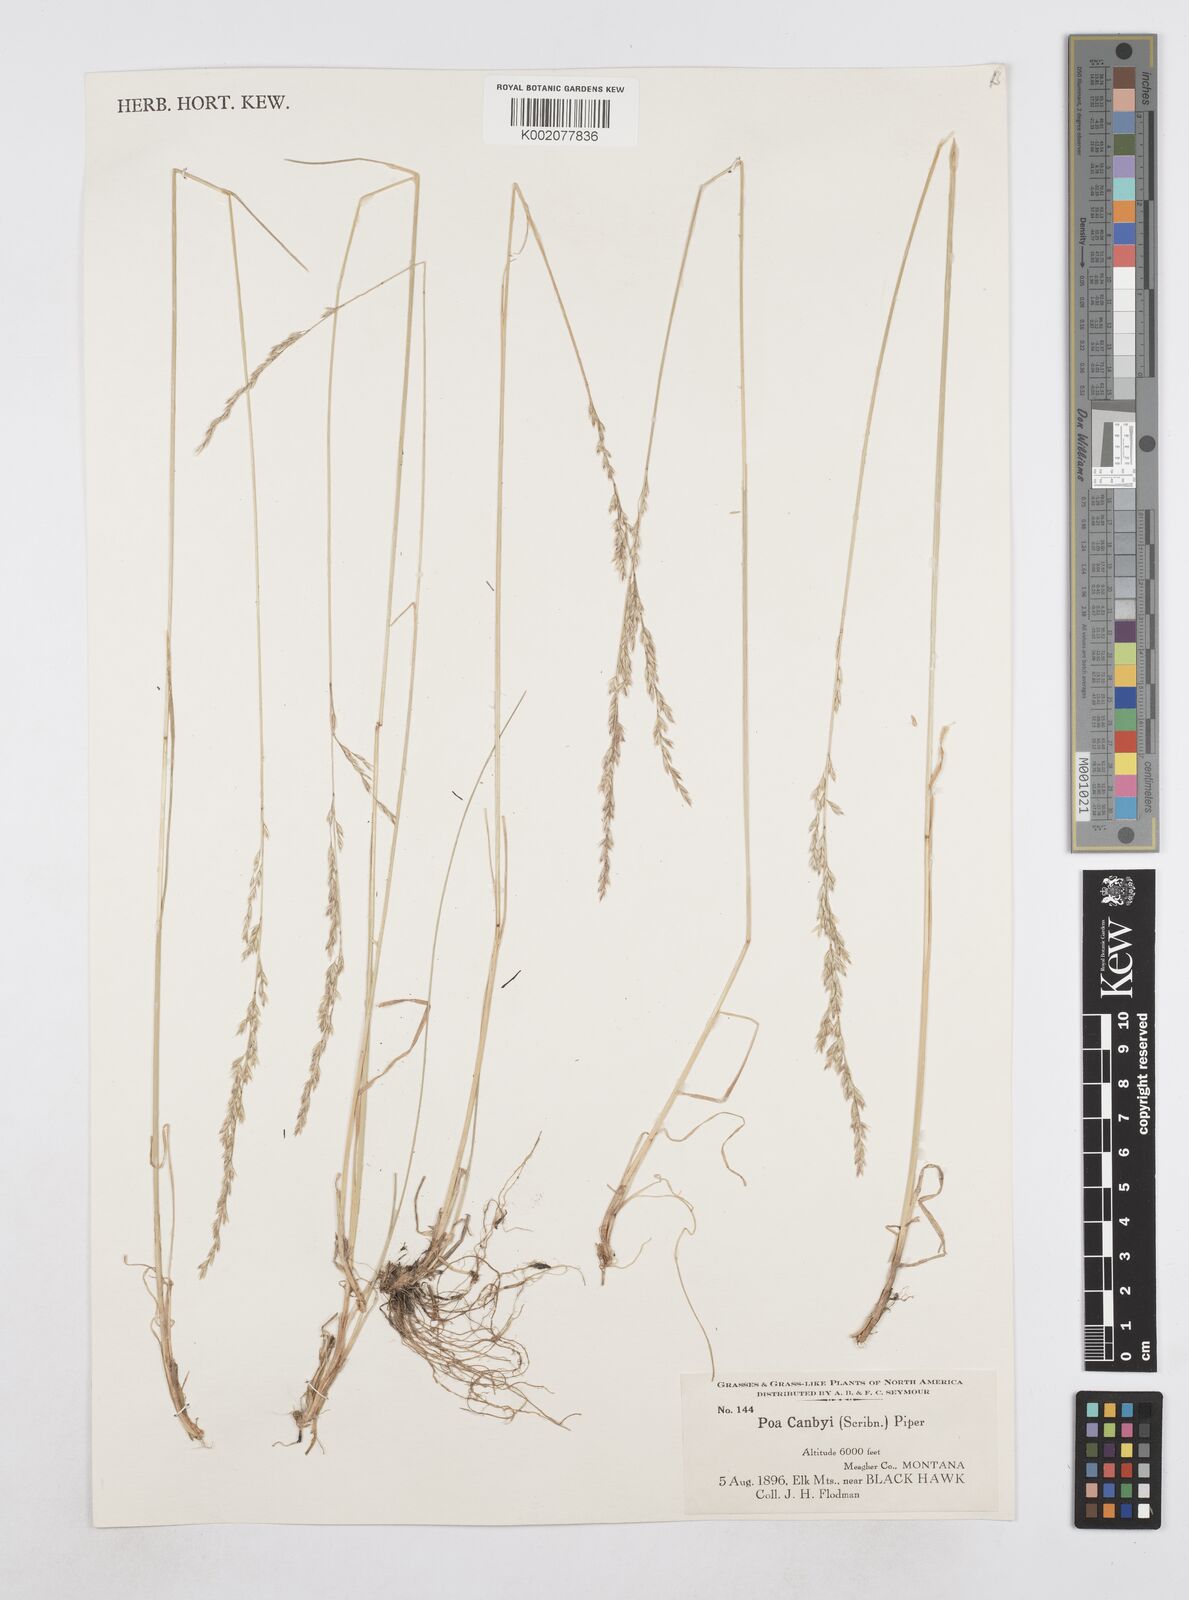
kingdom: Plantae
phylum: Tracheophyta
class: Liliopsida
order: Poales
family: Poaceae
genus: Poa
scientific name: Poa secunda
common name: Sandberg bluegrass
